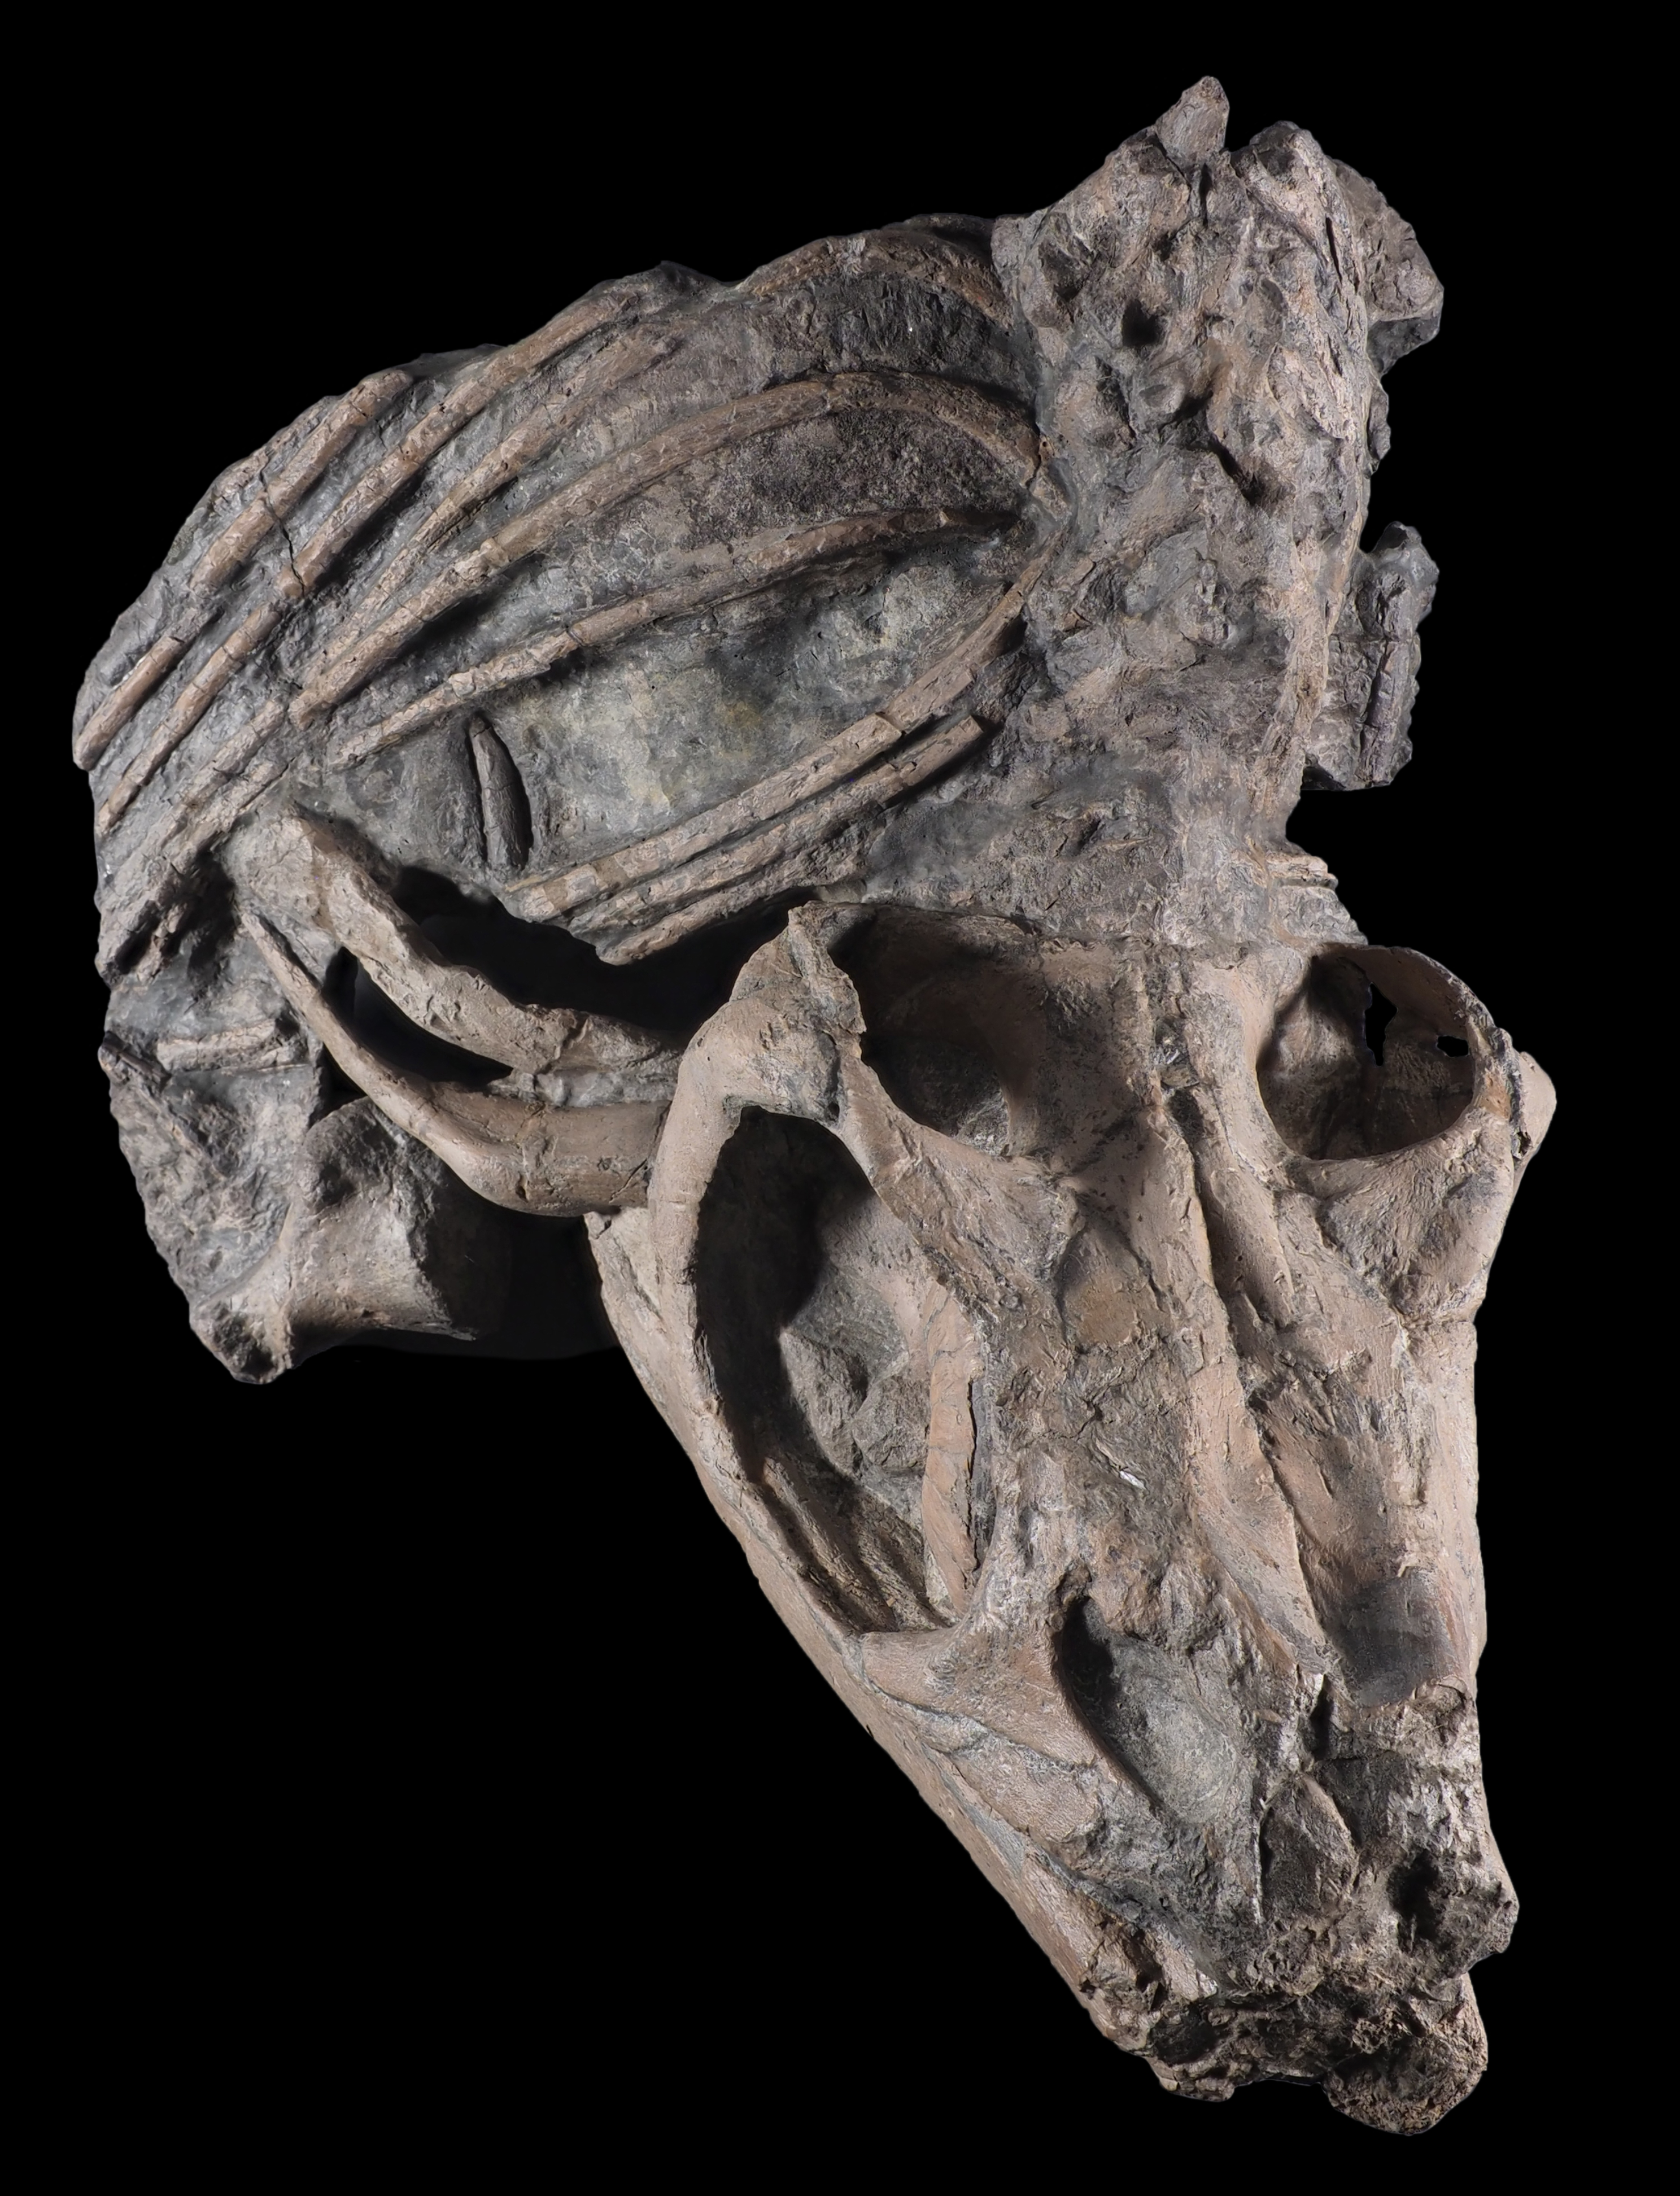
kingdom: Animalia
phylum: Chordata
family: Stenopterygiidae
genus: Stenopterygius
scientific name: Stenopterygius longifrons
